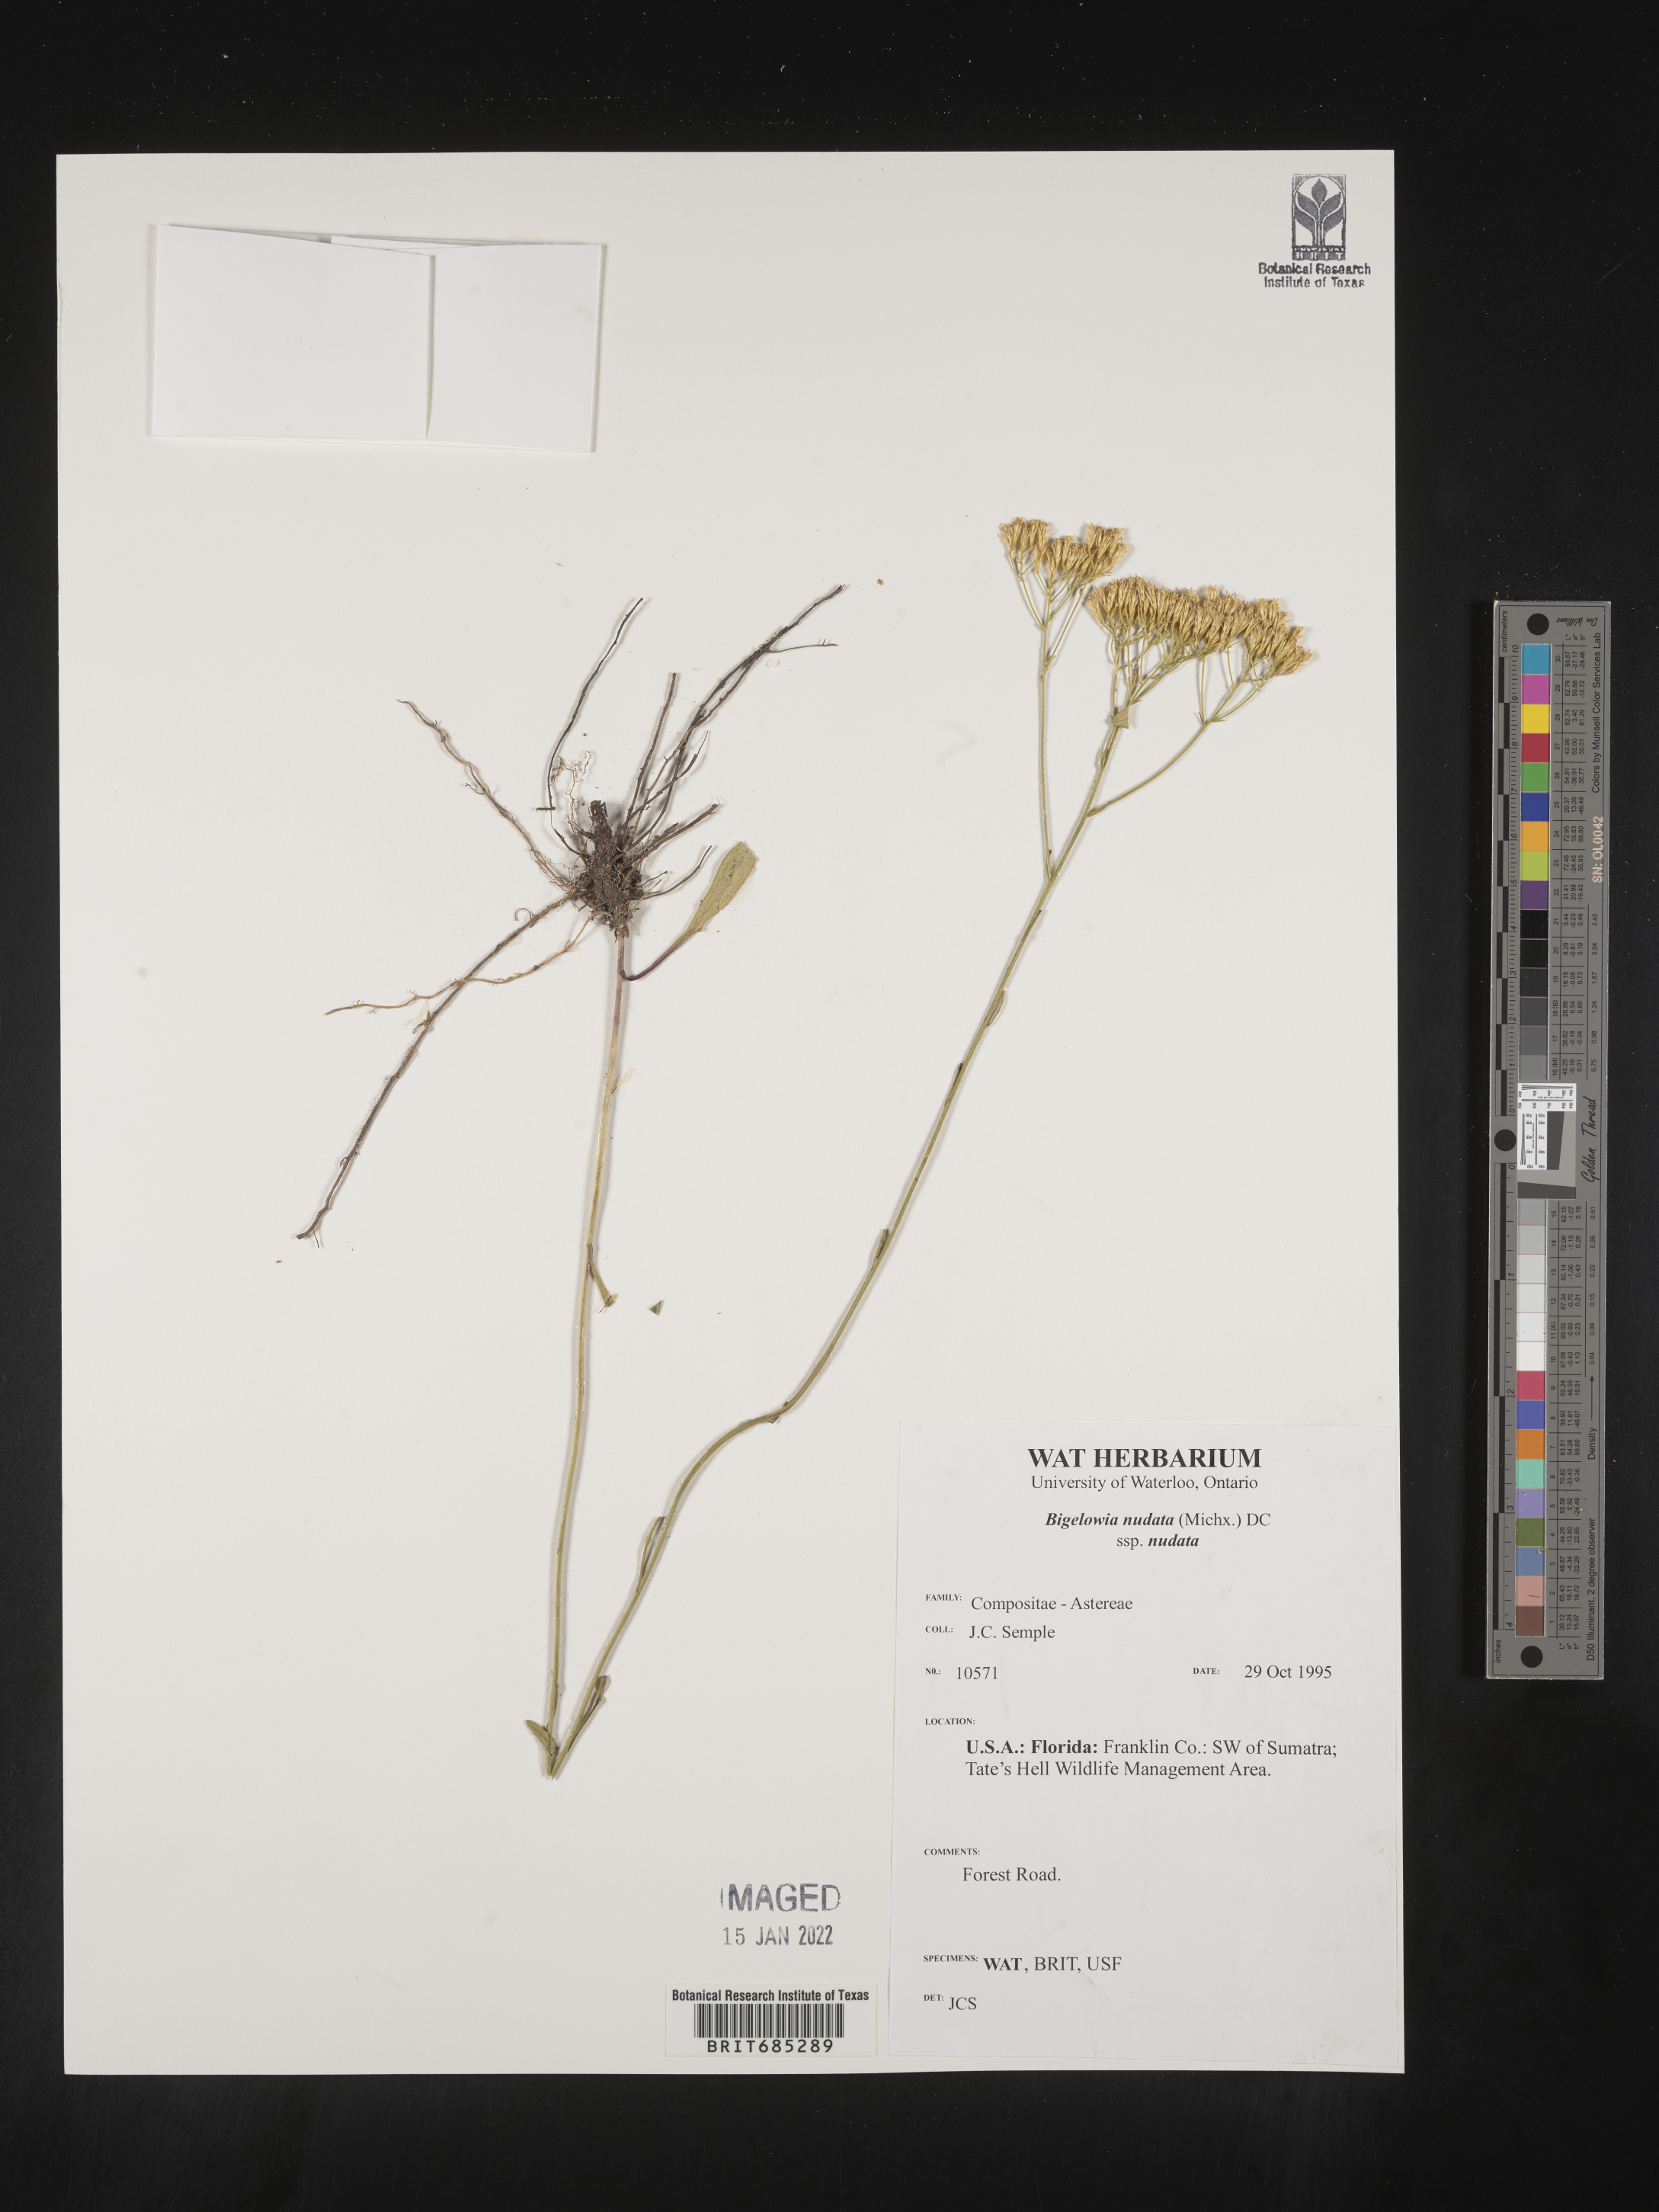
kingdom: Plantae
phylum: Tracheophyta
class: Magnoliopsida
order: Asterales
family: Asteraceae
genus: Bigelowia
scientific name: Bigelowia nudata
